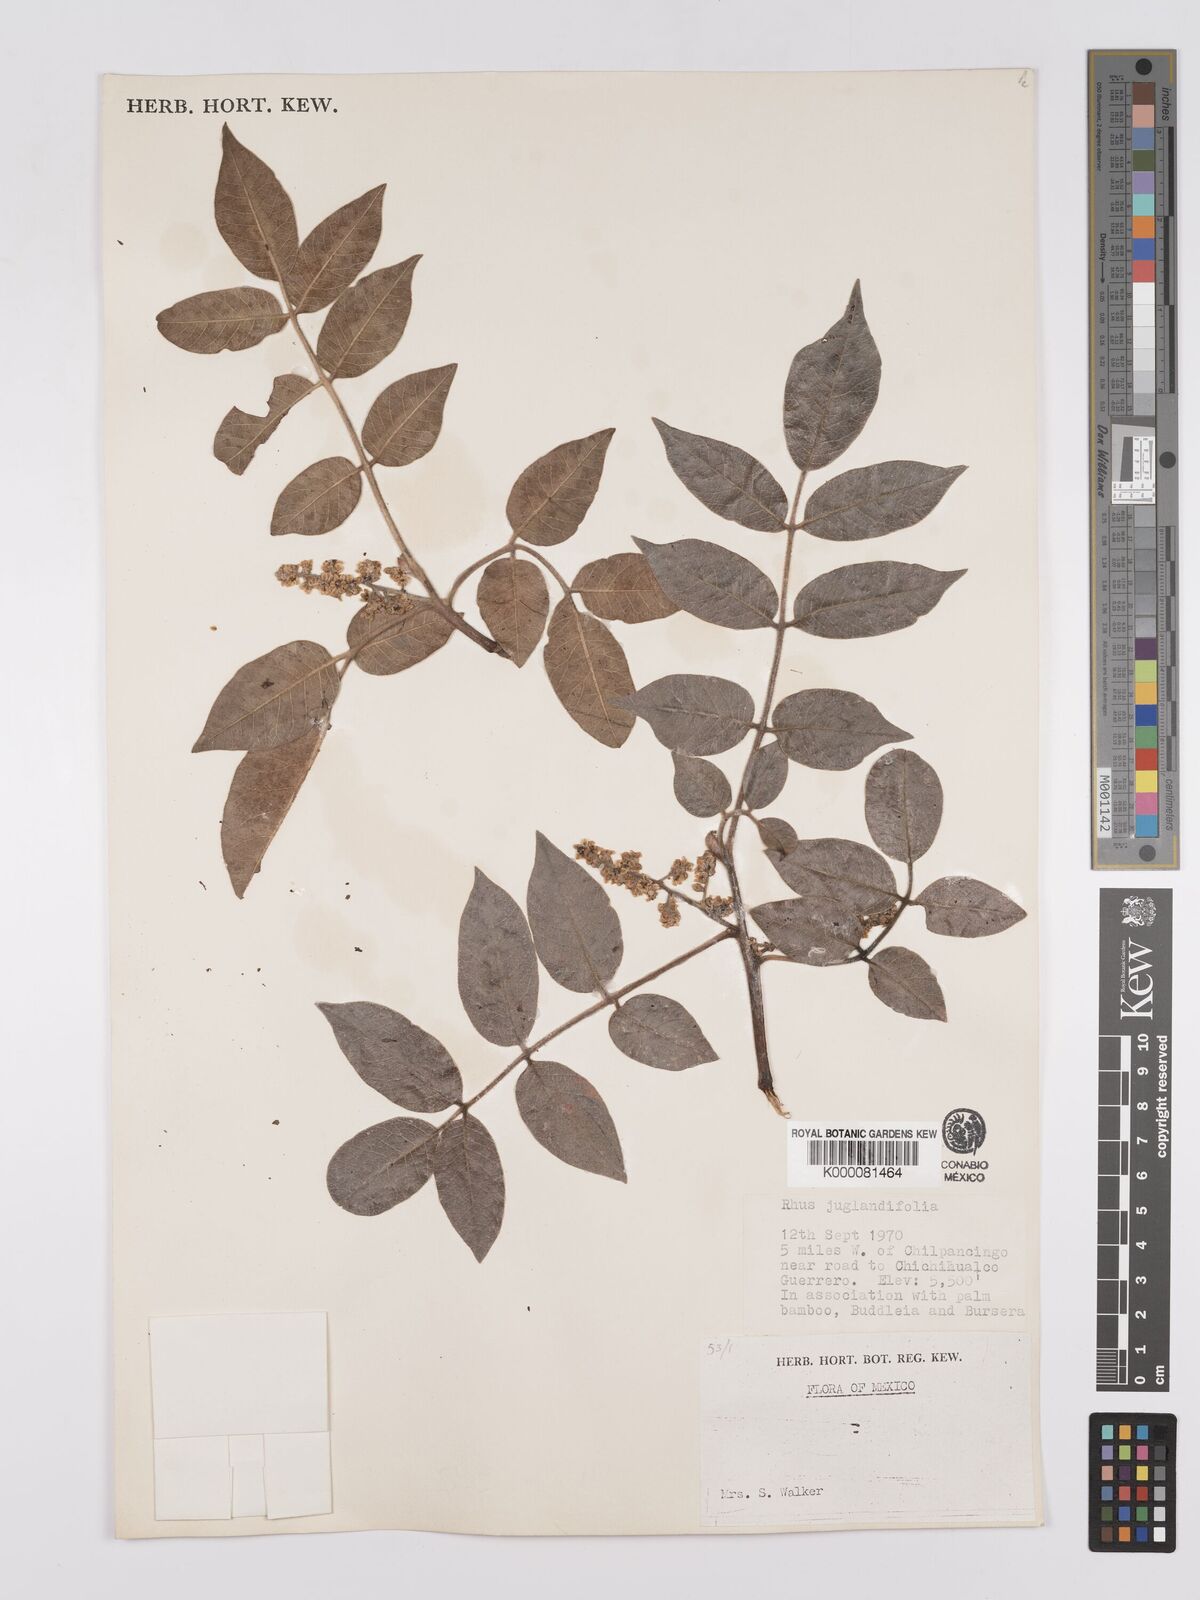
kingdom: Plantae
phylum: Tracheophyta
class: Magnoliopsida
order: Sapindales
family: Anacardiaceae
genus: Toxicodendron
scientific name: Toxicodendron striatum
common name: Sumac
